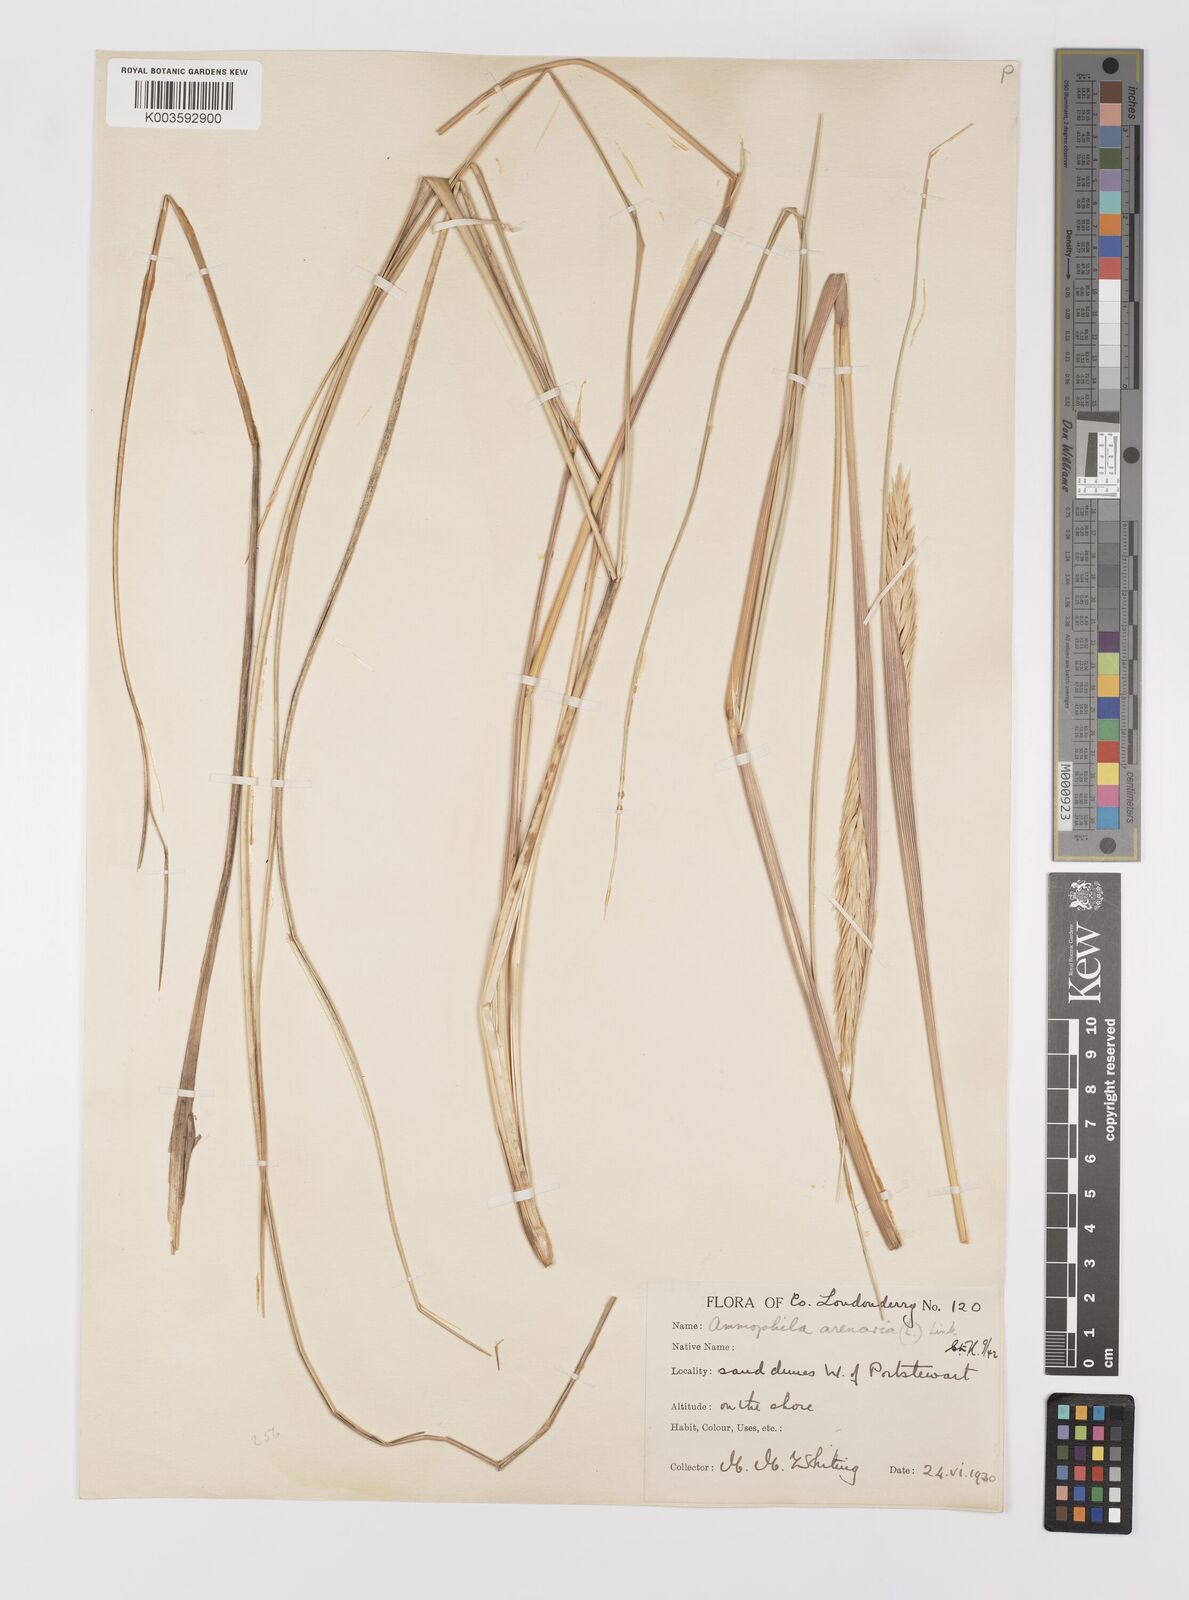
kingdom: Plantae
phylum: Tracheophyta
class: Liliopsida
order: Poales
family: Poaceae
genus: Calamagrostis
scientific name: Calamagrostis arenaria
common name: European beachgrass
